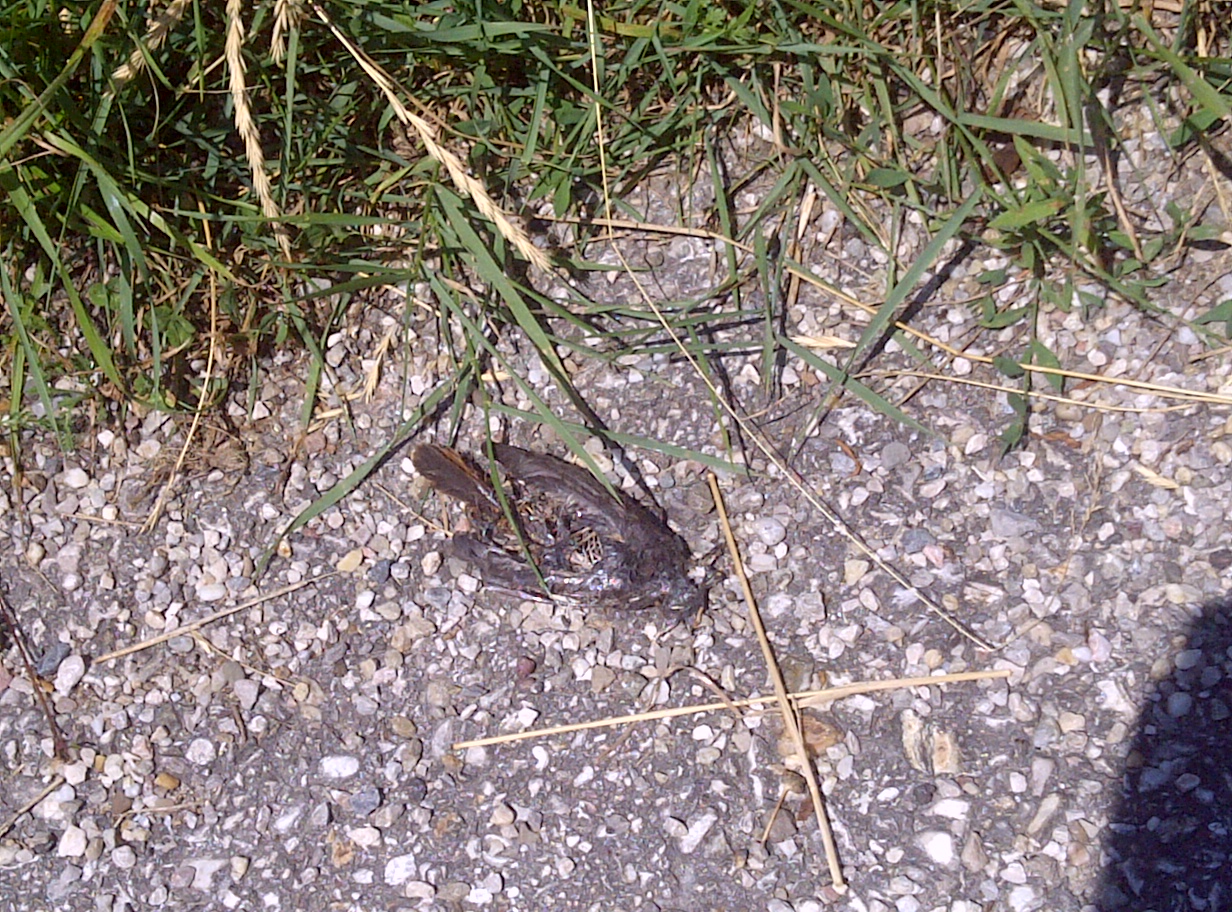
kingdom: Animalia
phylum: Chordata
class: Aves
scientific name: Aves
